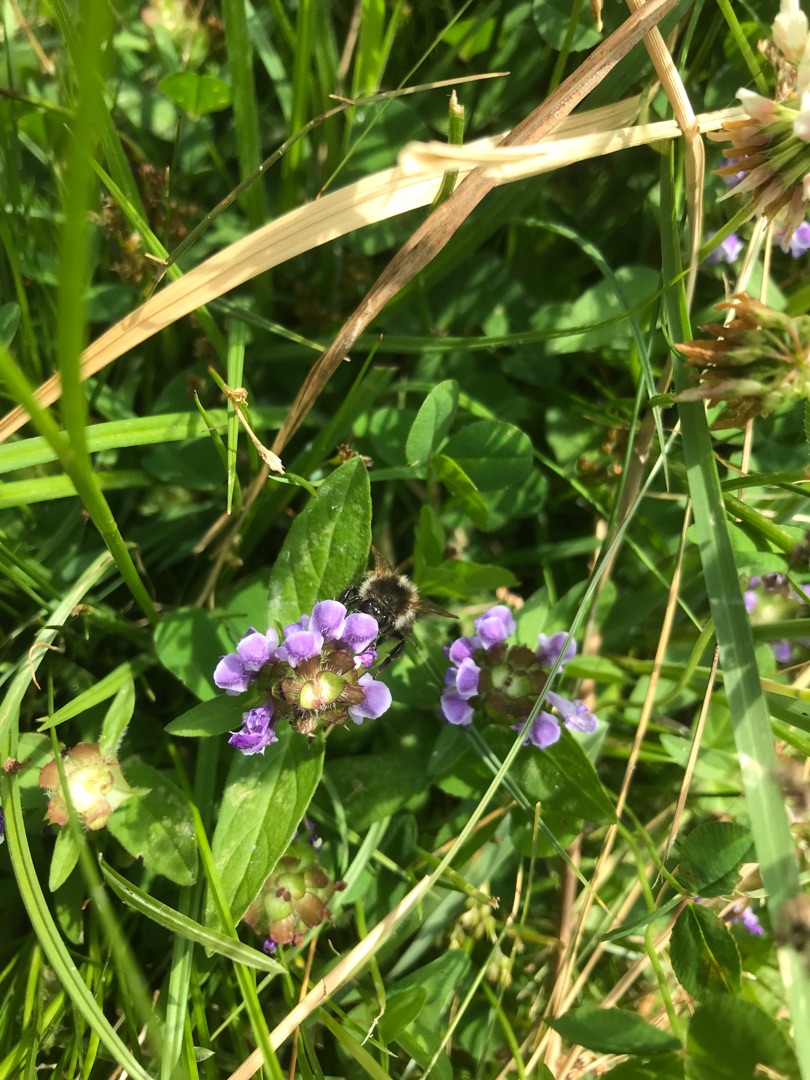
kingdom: Plantae
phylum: Tracheophyta
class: Magnoliopsida
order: Lamiales
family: Lamiaceae
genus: Prunella
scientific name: Prunella vulgaris
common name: Almindelig brunelle
